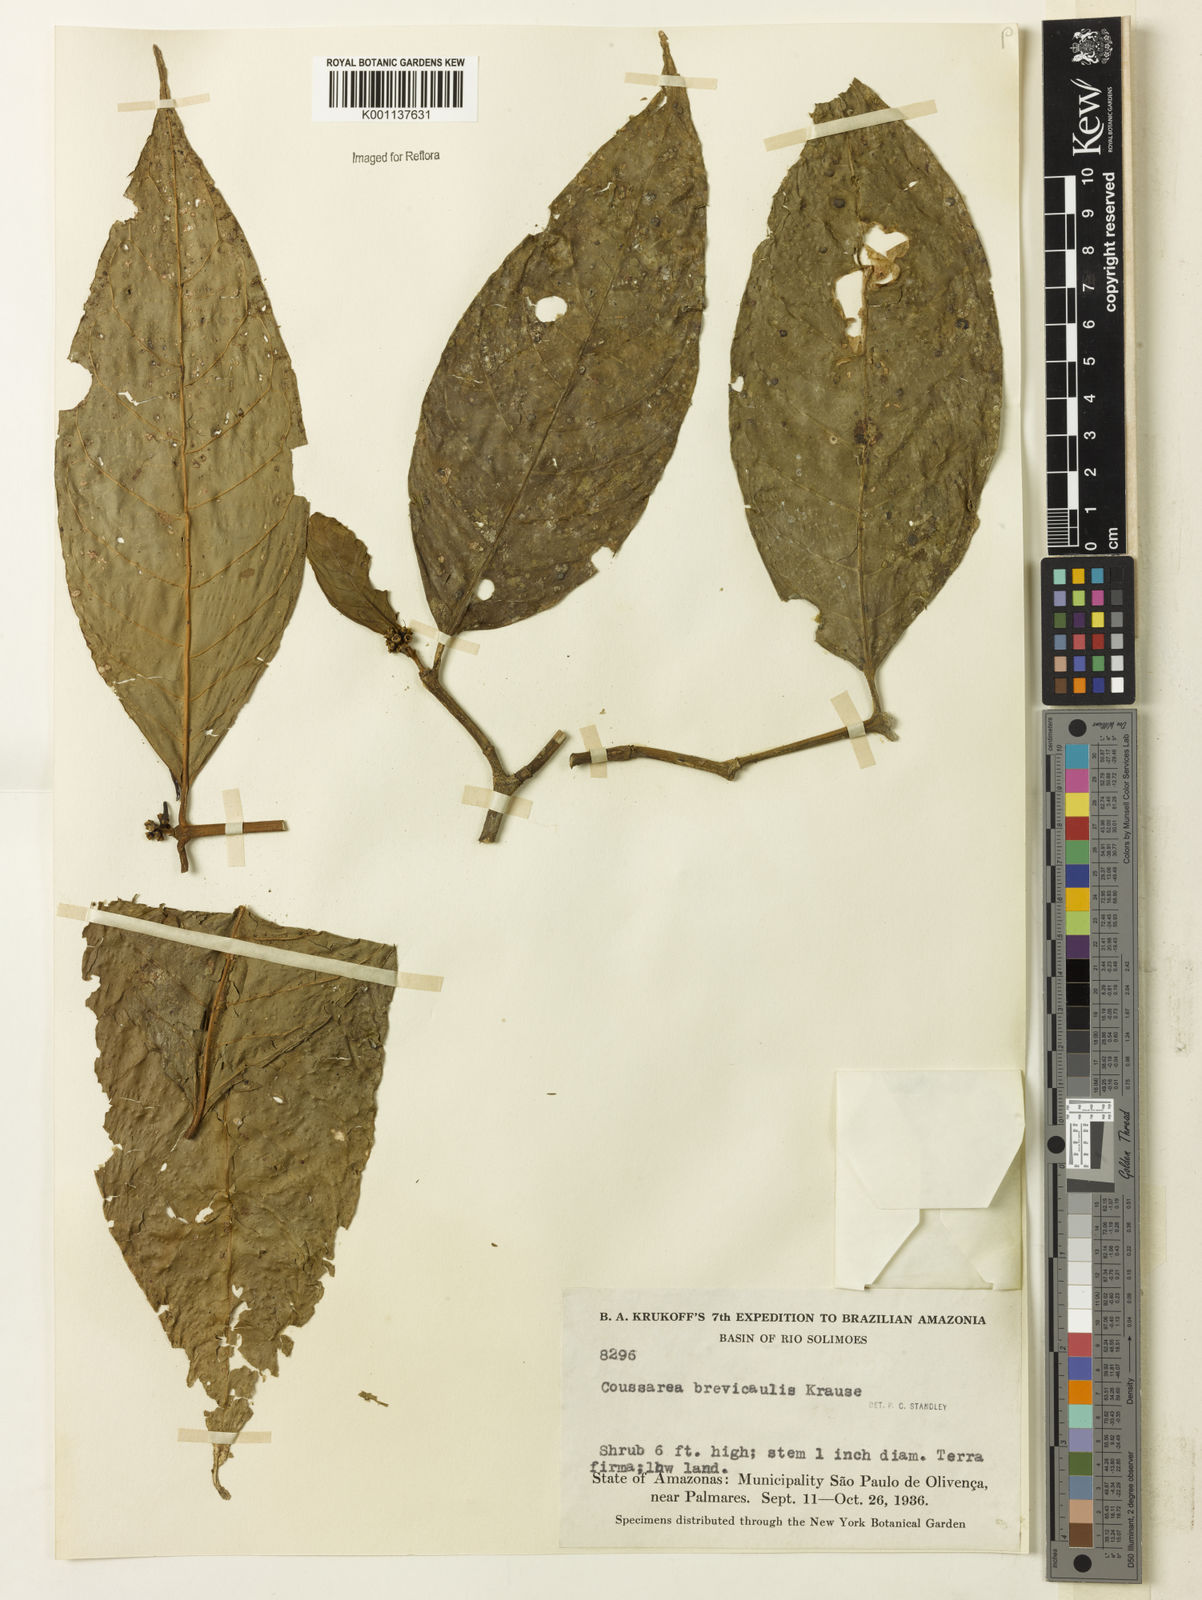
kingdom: Plantae
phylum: Tracheophyta
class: Magnoliopsida
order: Gentianales
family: Rubiaceae
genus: Coussarea
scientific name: Coussarea brevicaulis
